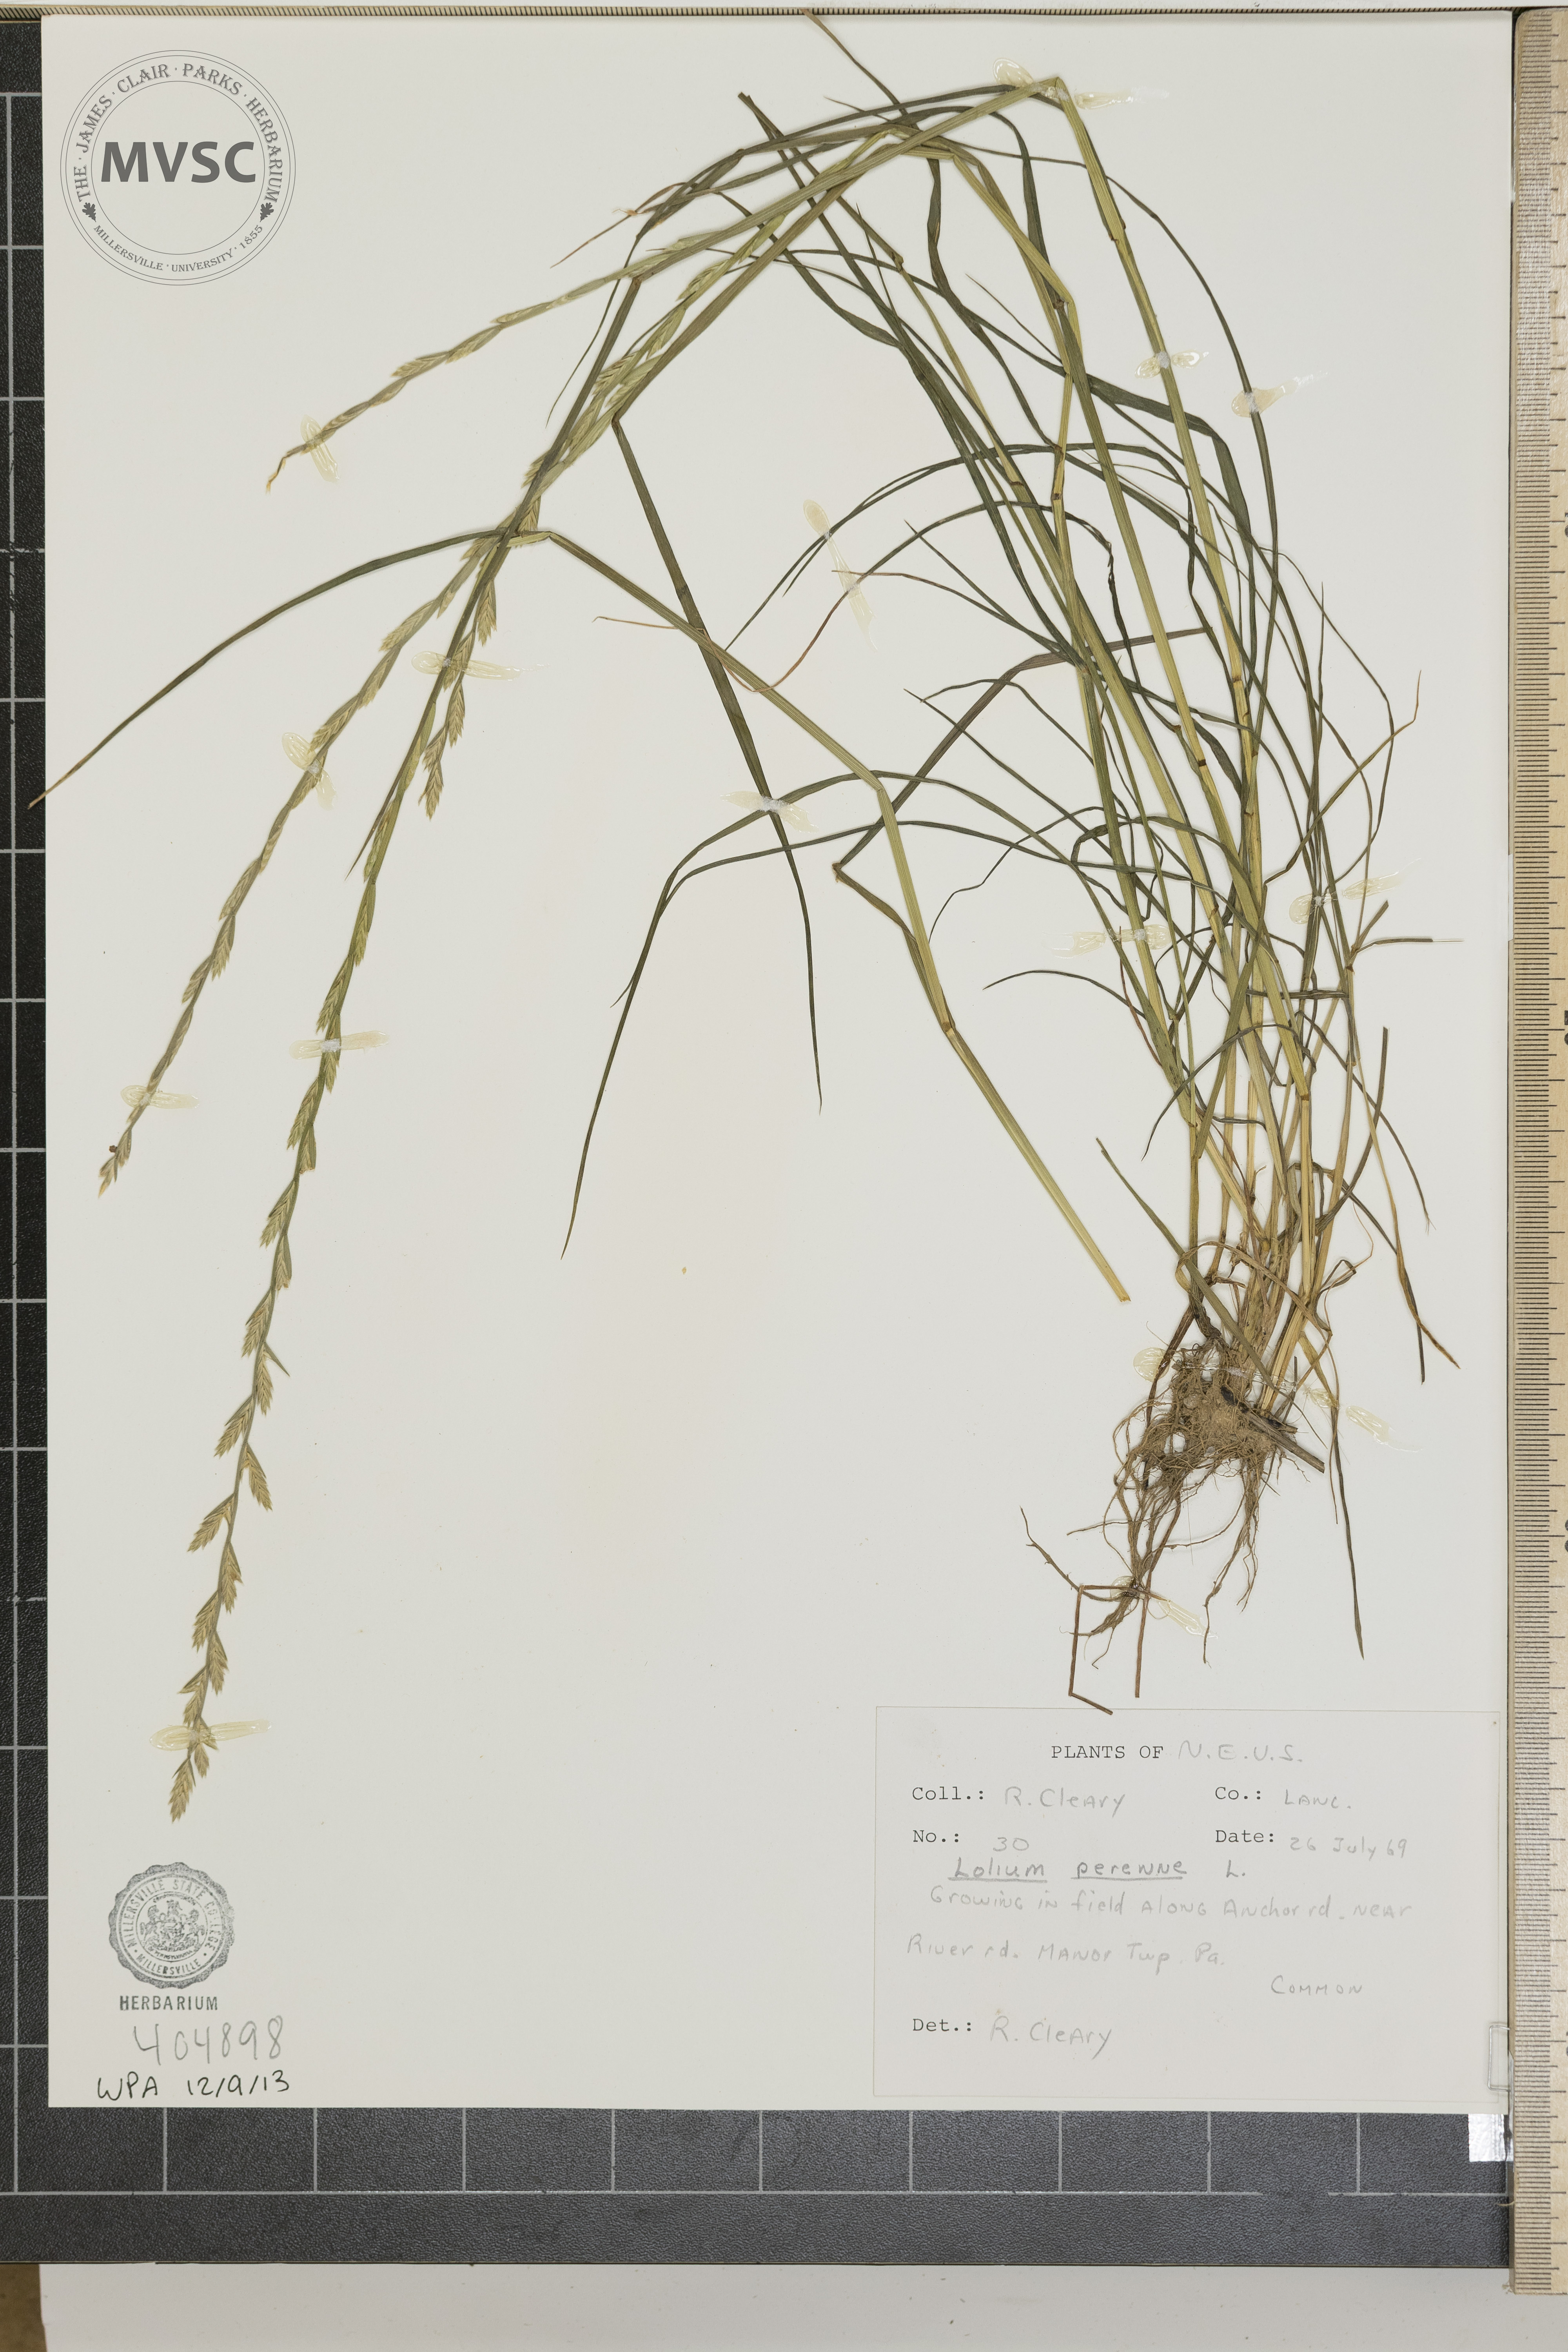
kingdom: Plantae
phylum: Tracheophyta
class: Liliopsida
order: Poales
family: Poaceae
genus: Lolium
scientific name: Lolium perenne
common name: Perennial ryegrass
